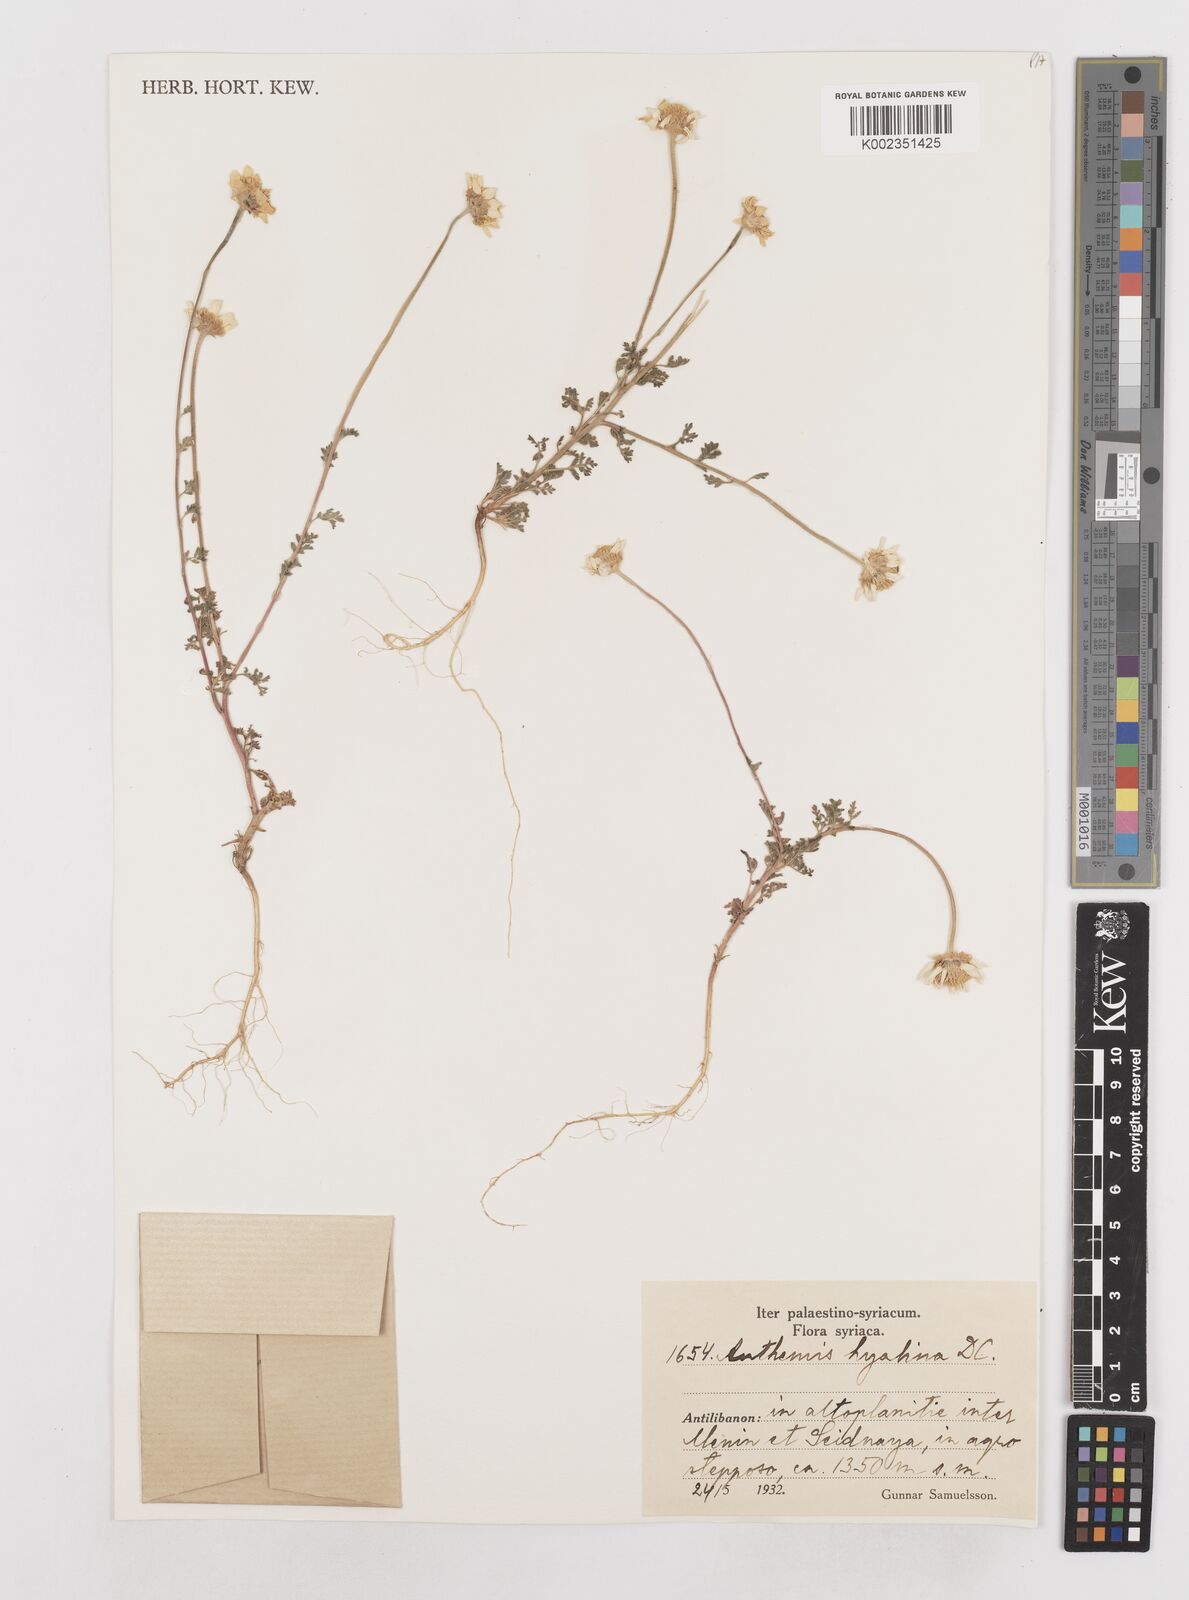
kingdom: Plantae
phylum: Tracheophyta
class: Magnoliopsida
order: Asterales
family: Asteraceae
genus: Anthemis
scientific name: Anthemis hyalina
